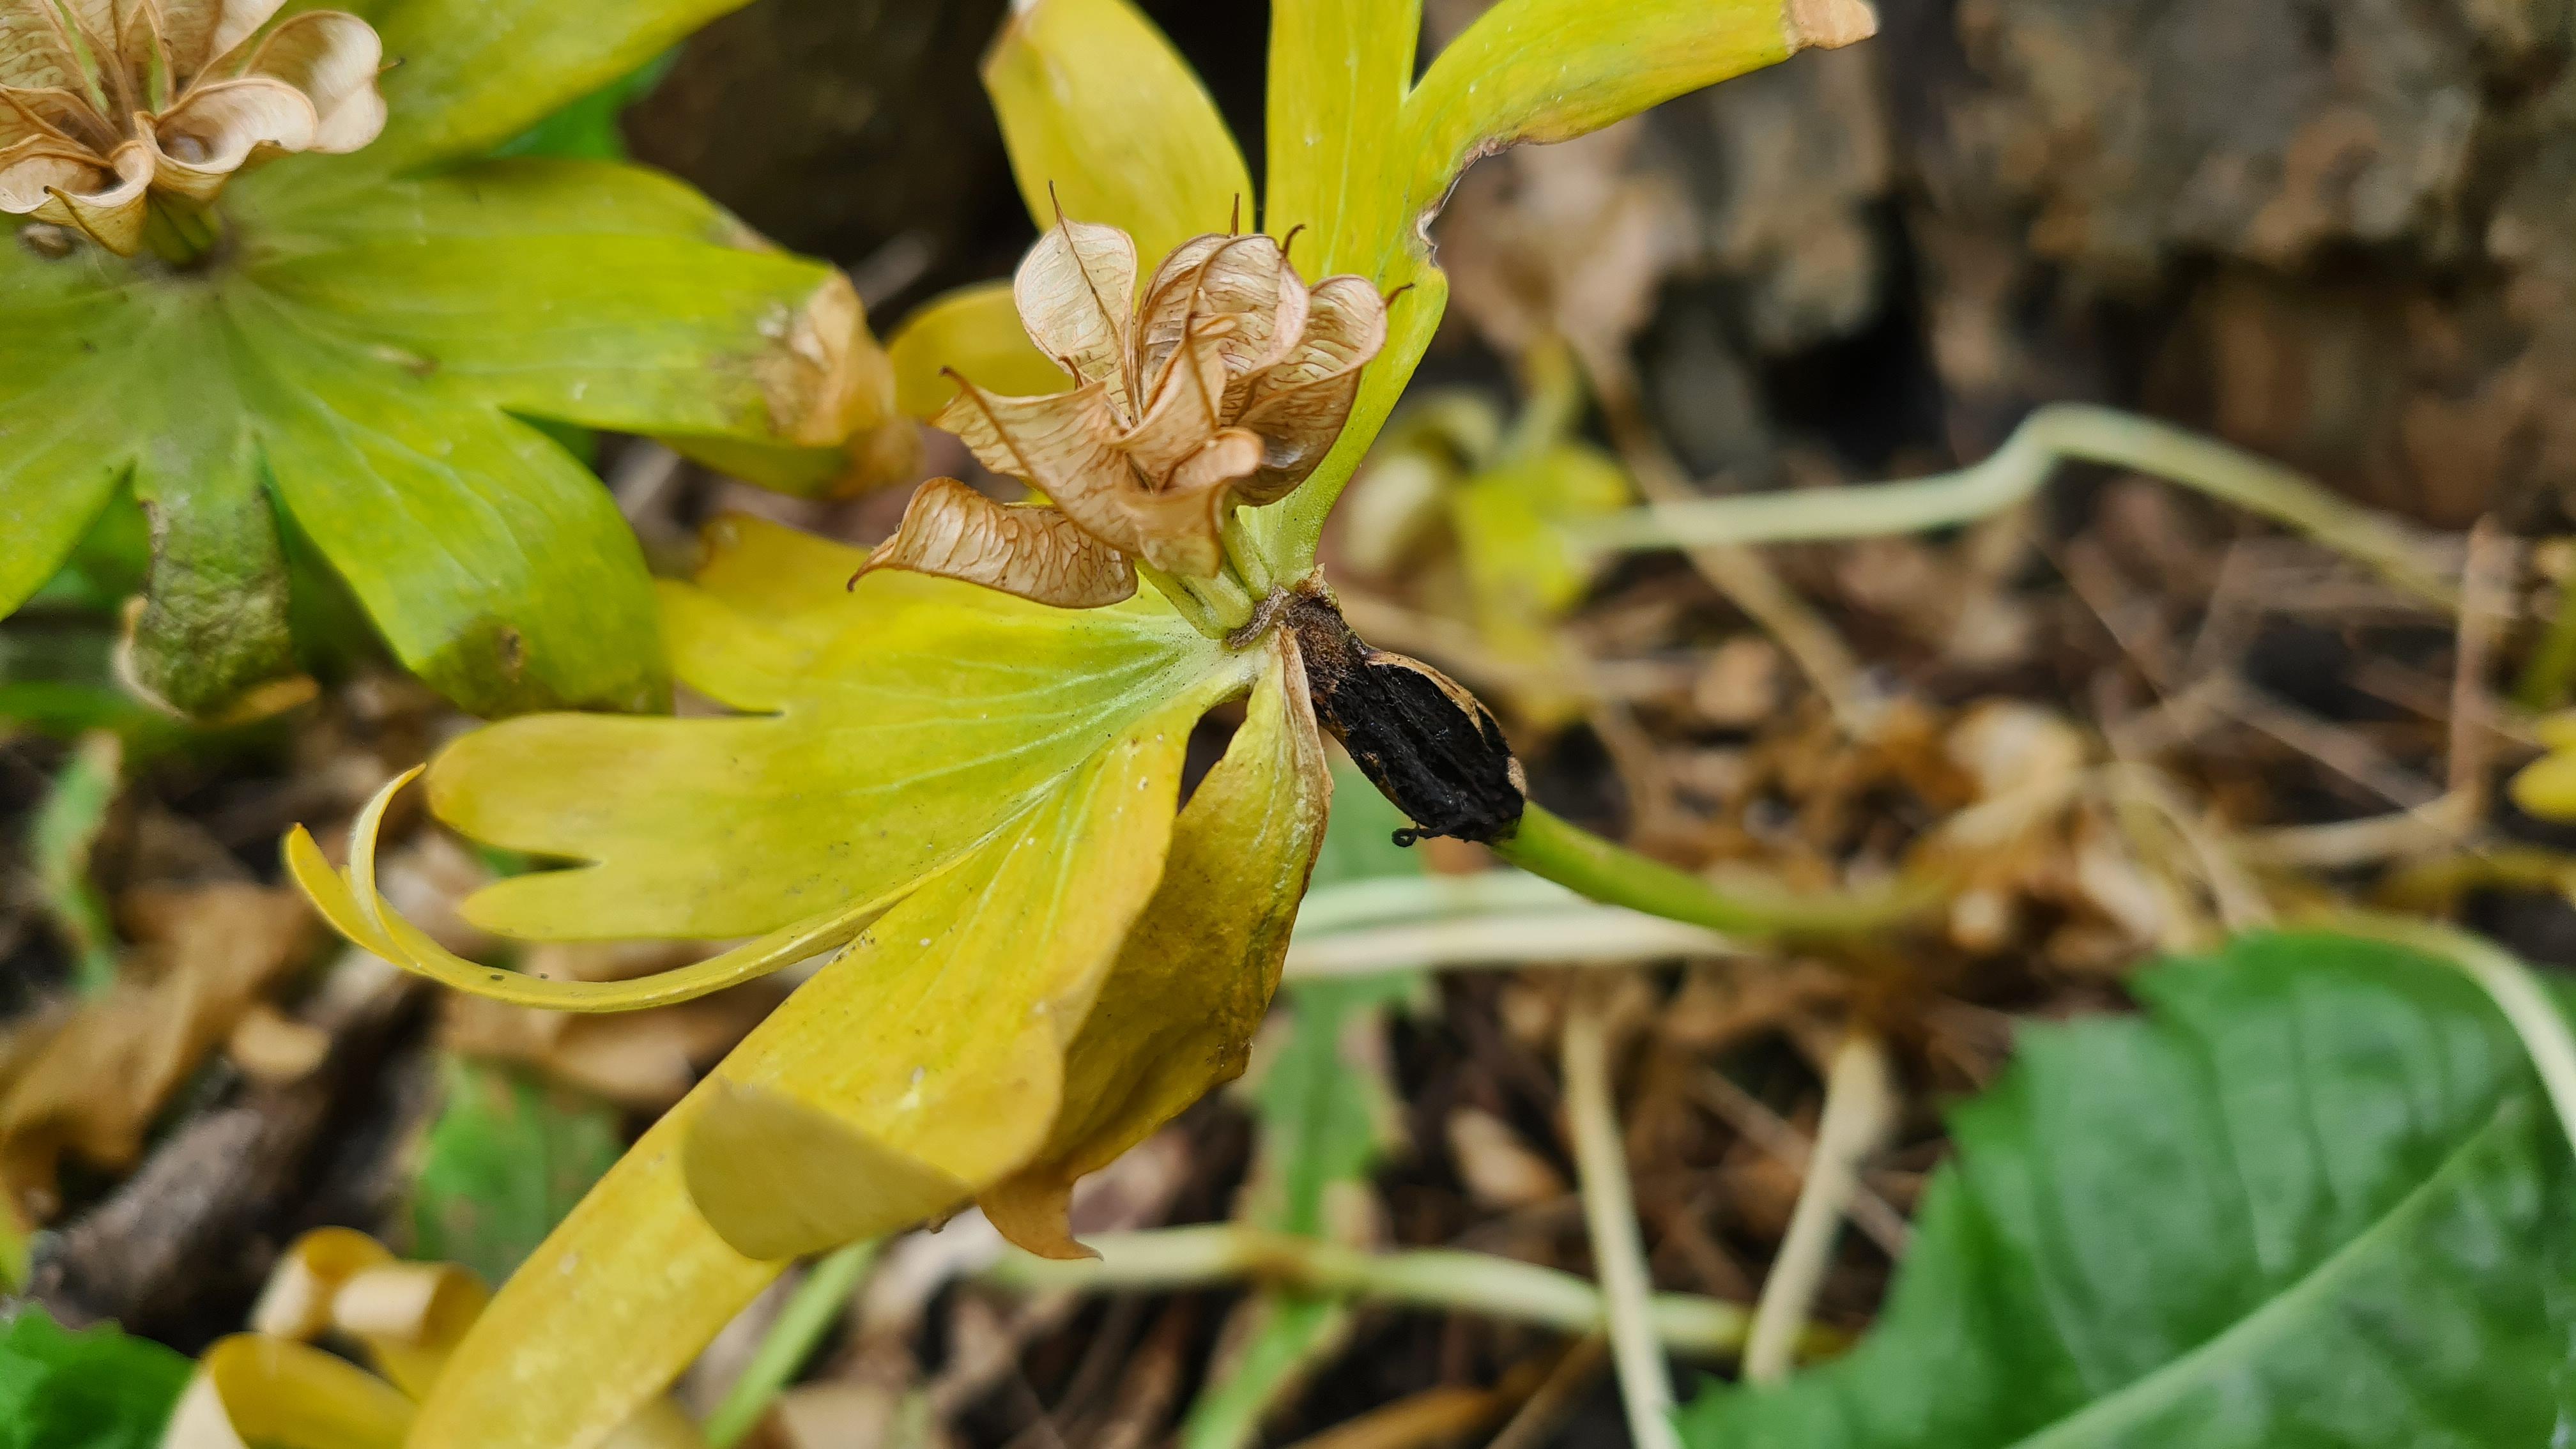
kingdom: Fungi
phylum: Basidiomycota
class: Ustilaginomycetes
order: Urocystidales
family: Urocystidaceae
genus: Urocystis
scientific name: Urocystis eranthidis
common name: erantis-brand
